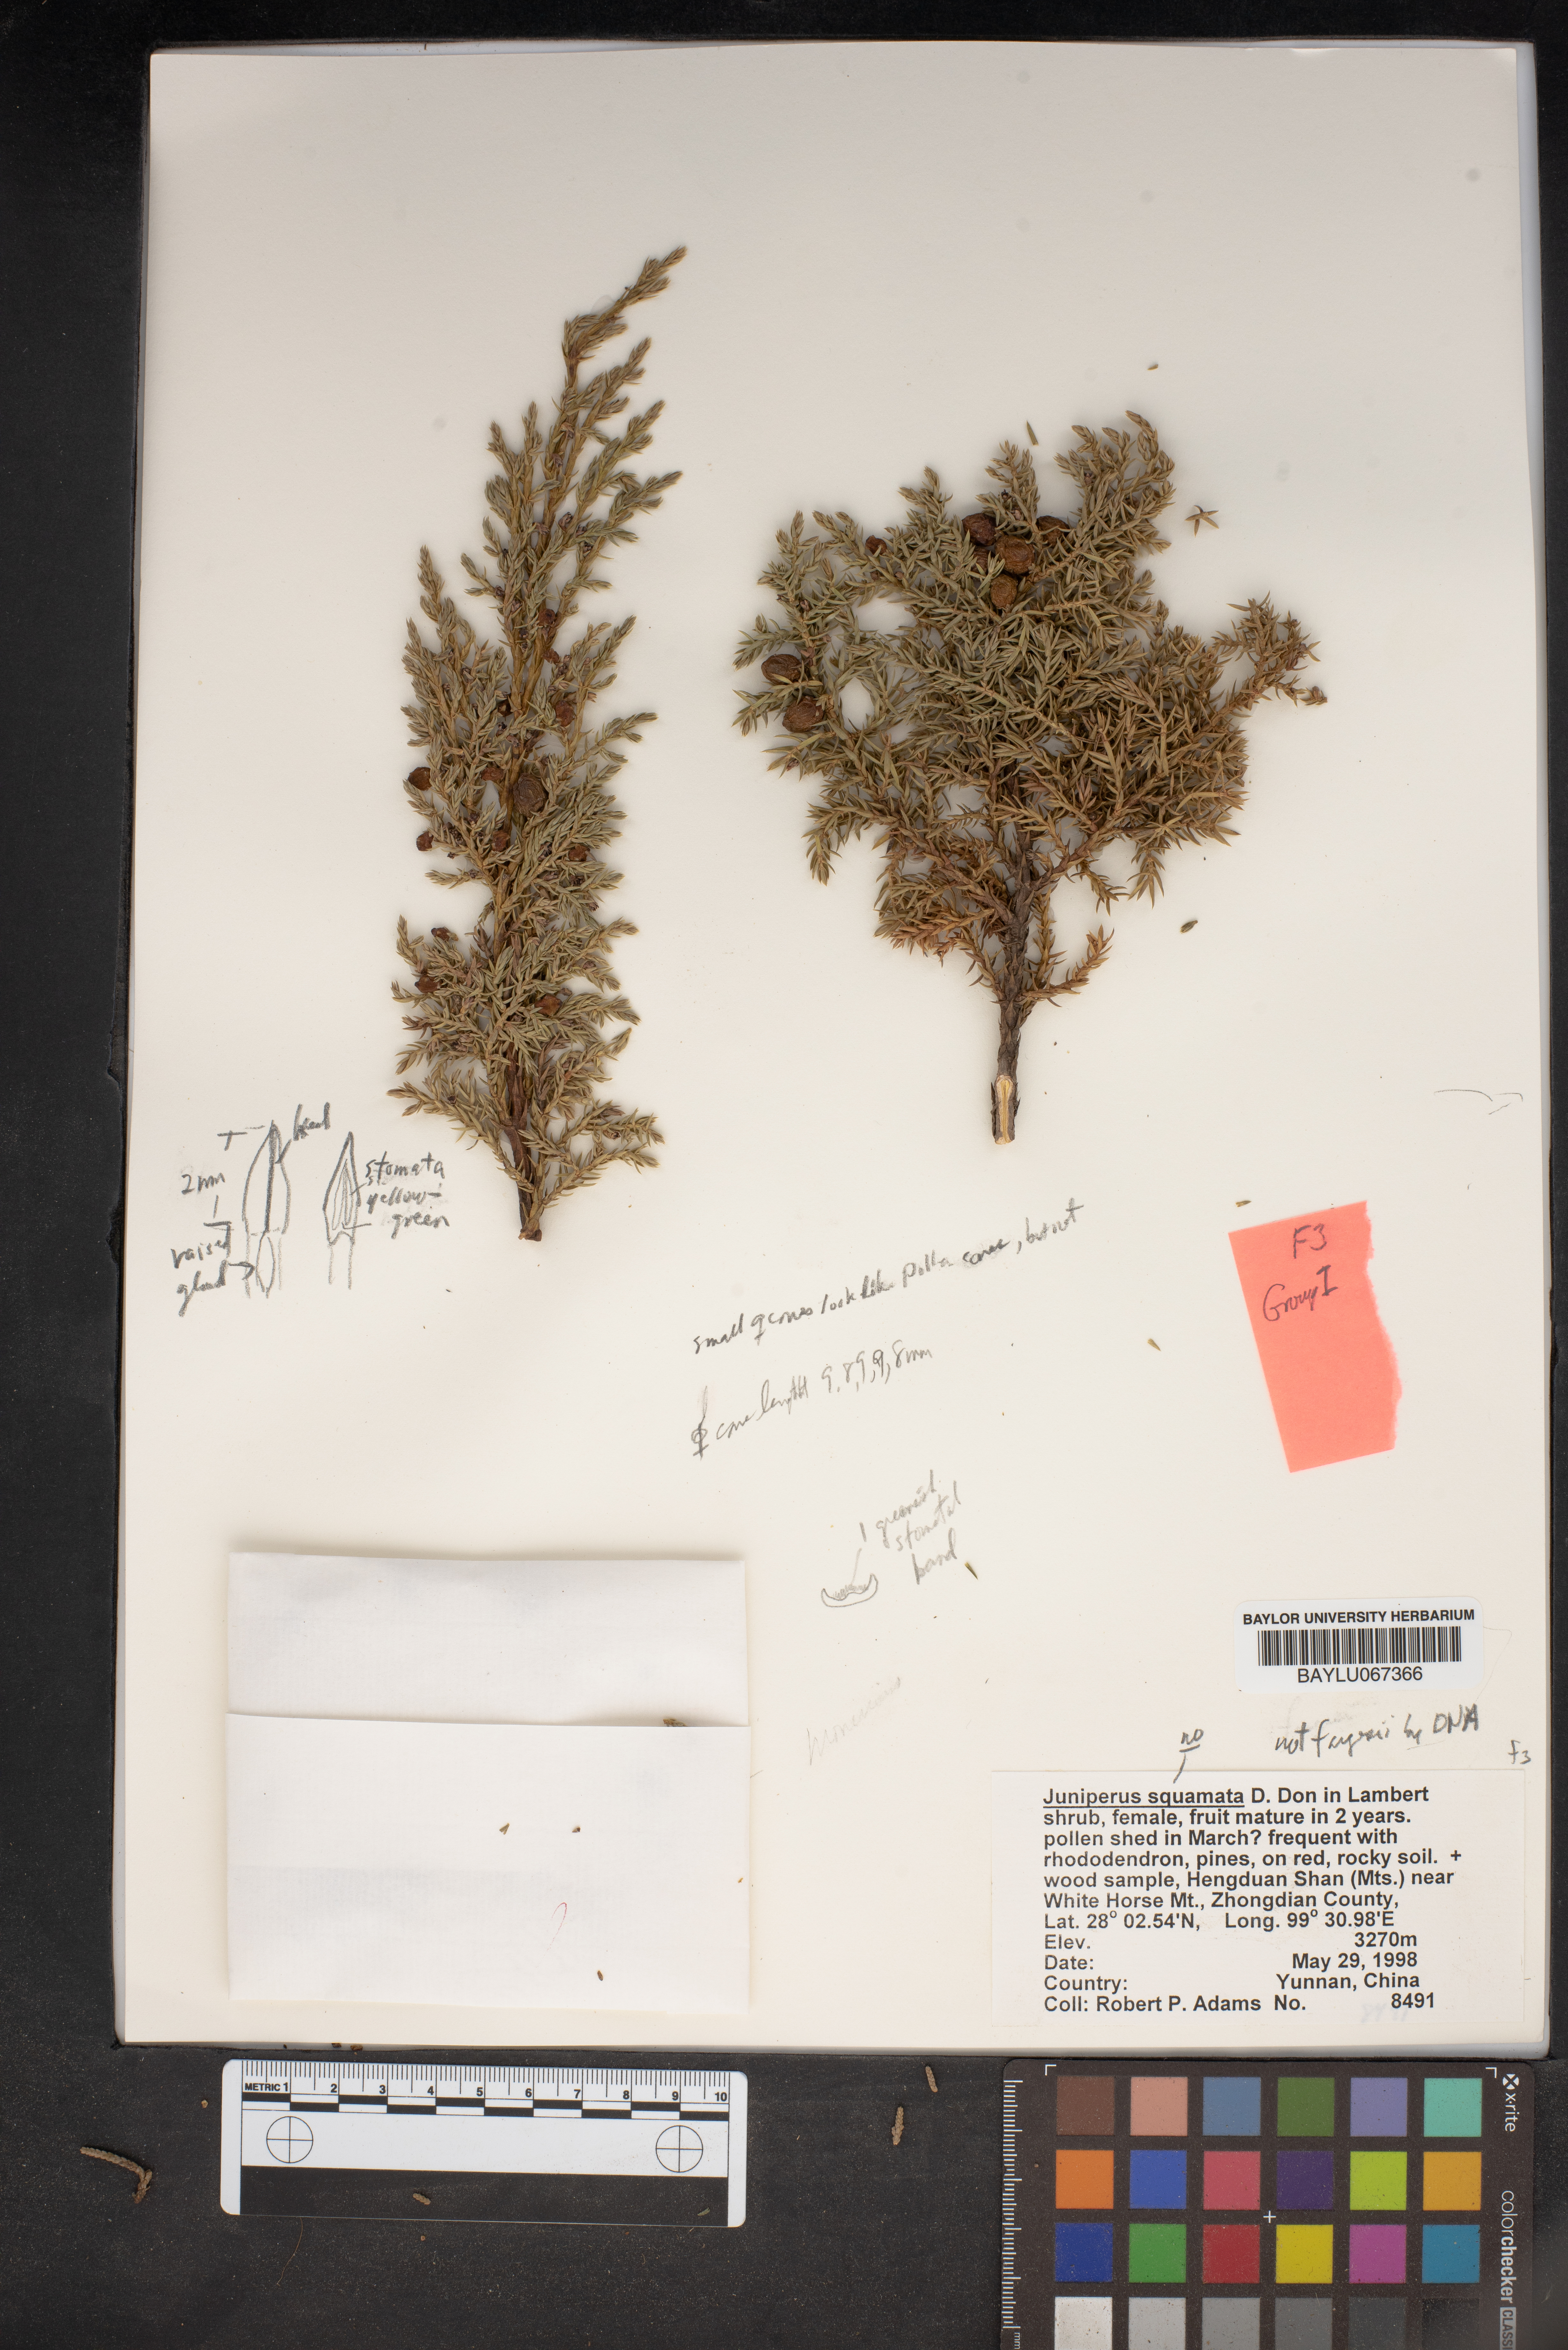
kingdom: Plantae
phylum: Tracheophyta
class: Pinopsida
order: Pinales
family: Cupressaceae
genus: Juniperus
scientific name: Juniperus squamata
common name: Flaky juniper
